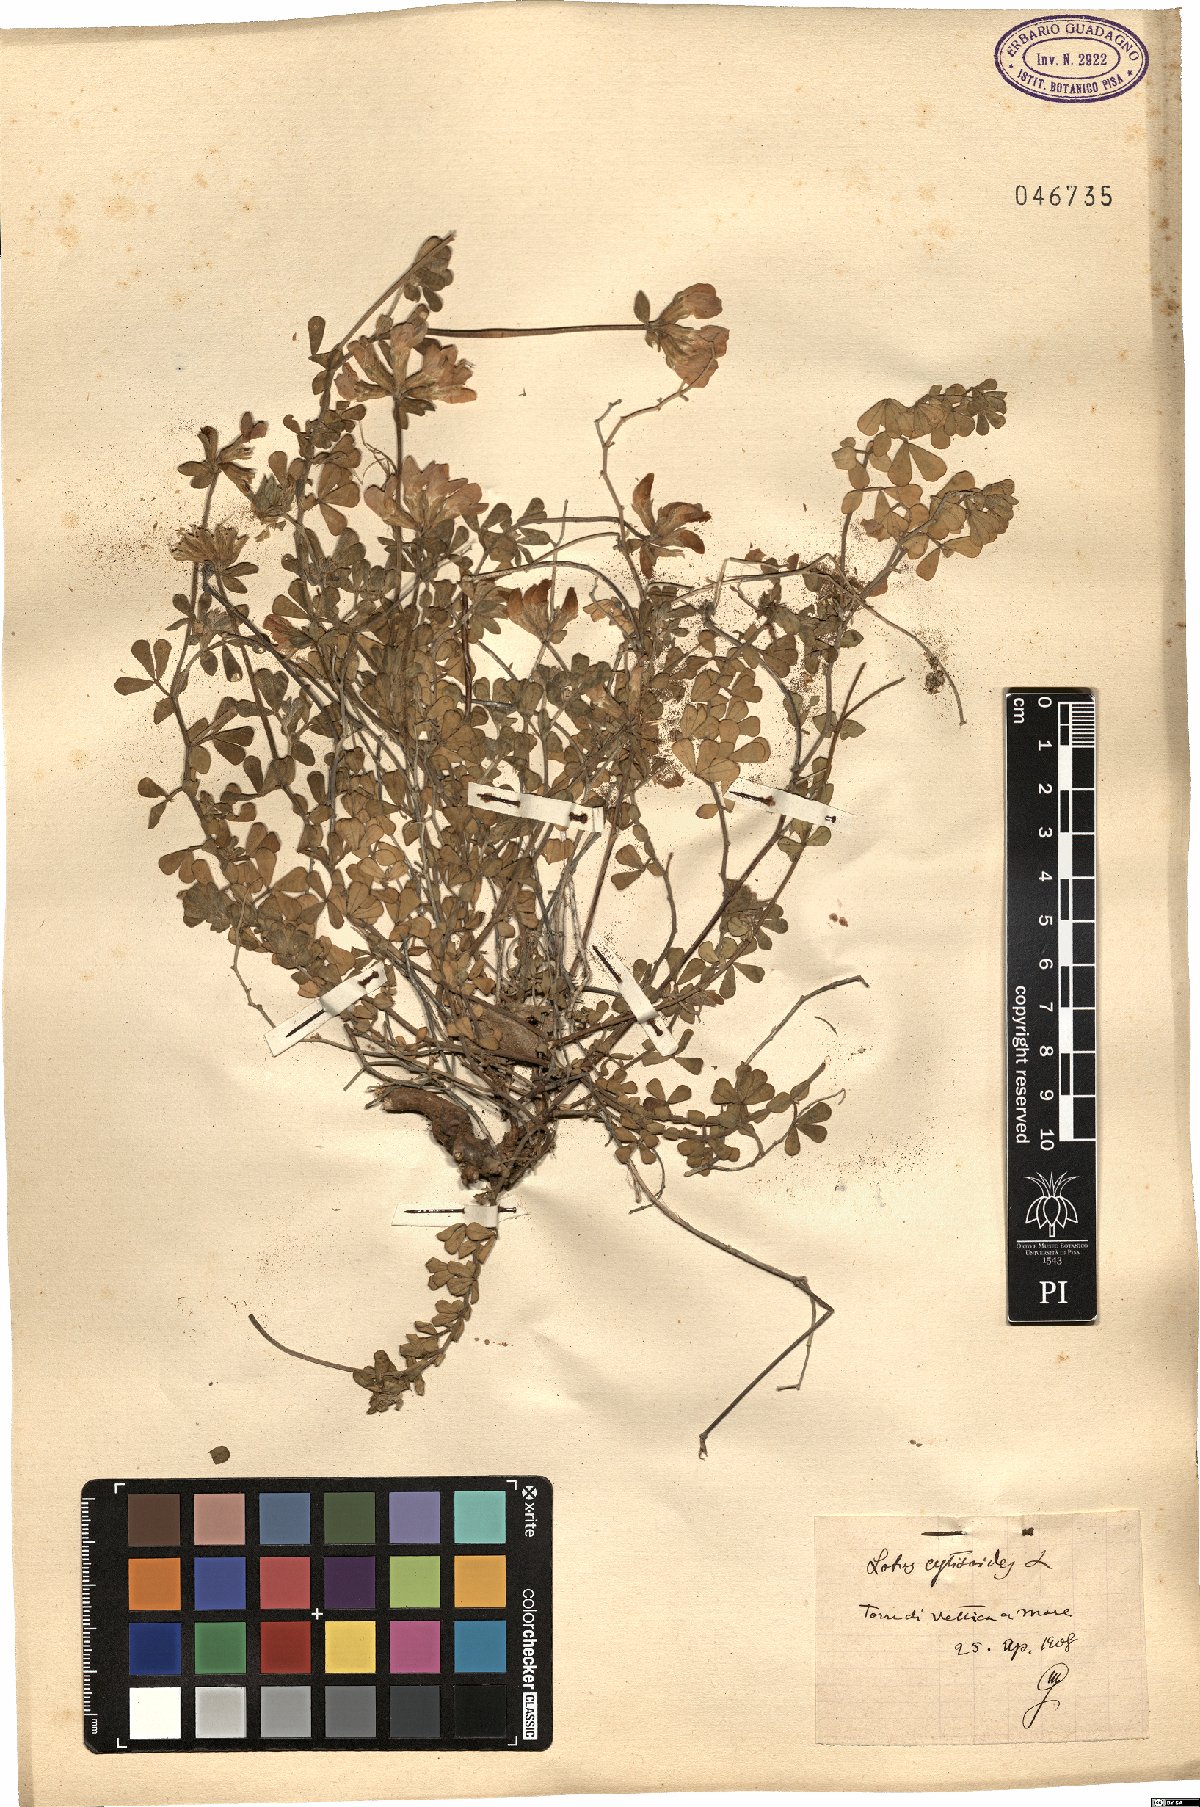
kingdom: Plantae
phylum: Tracheophyta
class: Magnoliopsida
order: Fabales
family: Fabaceae
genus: Lotus
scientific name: Lotus cytisoides
